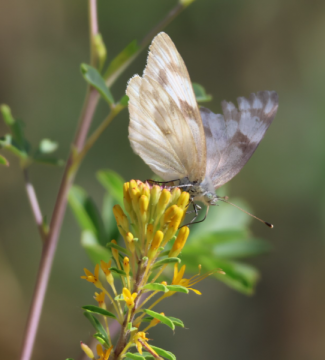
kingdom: Animalia
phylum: Arthropoda
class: Insecta
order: Lepidoptera
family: Pieridae
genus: Pontia
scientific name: Pontia protodice
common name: Checkered White
